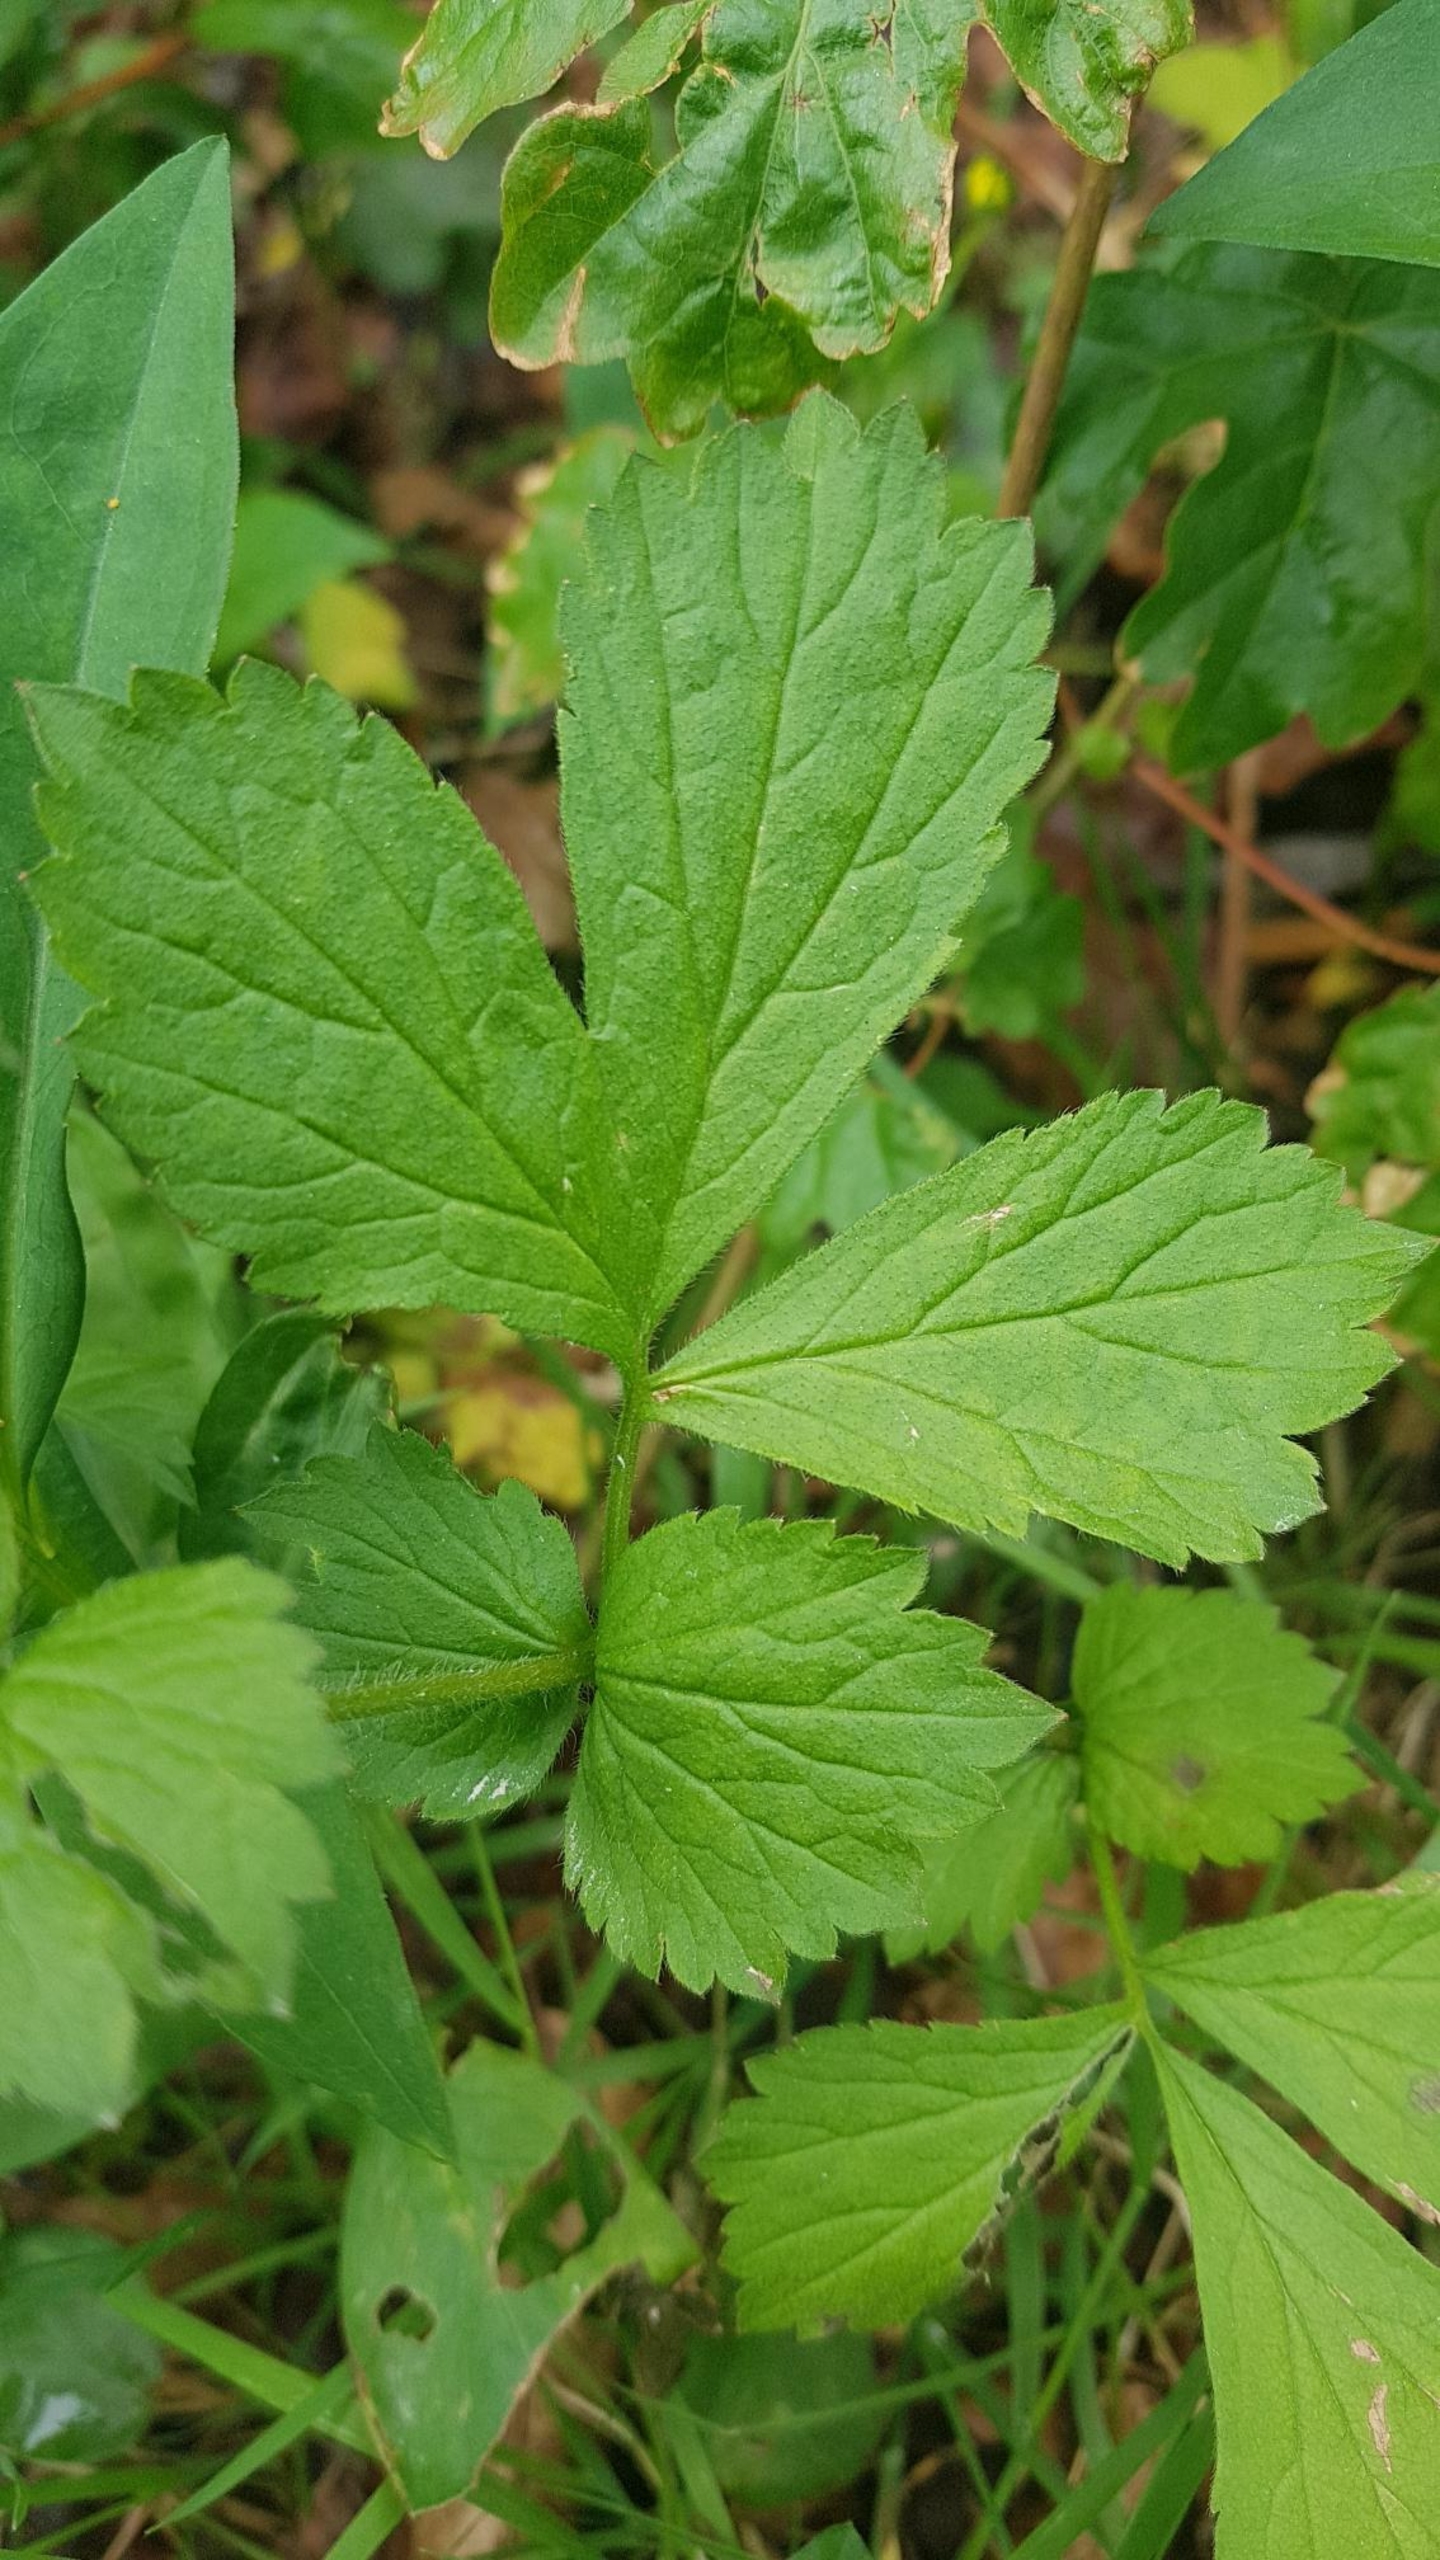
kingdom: Plantae
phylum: Tracheophyta
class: Magnoliopsida
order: Rosales
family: Rosaceae
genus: Geum
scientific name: Geum urbanum
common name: Feber-nellikerod
